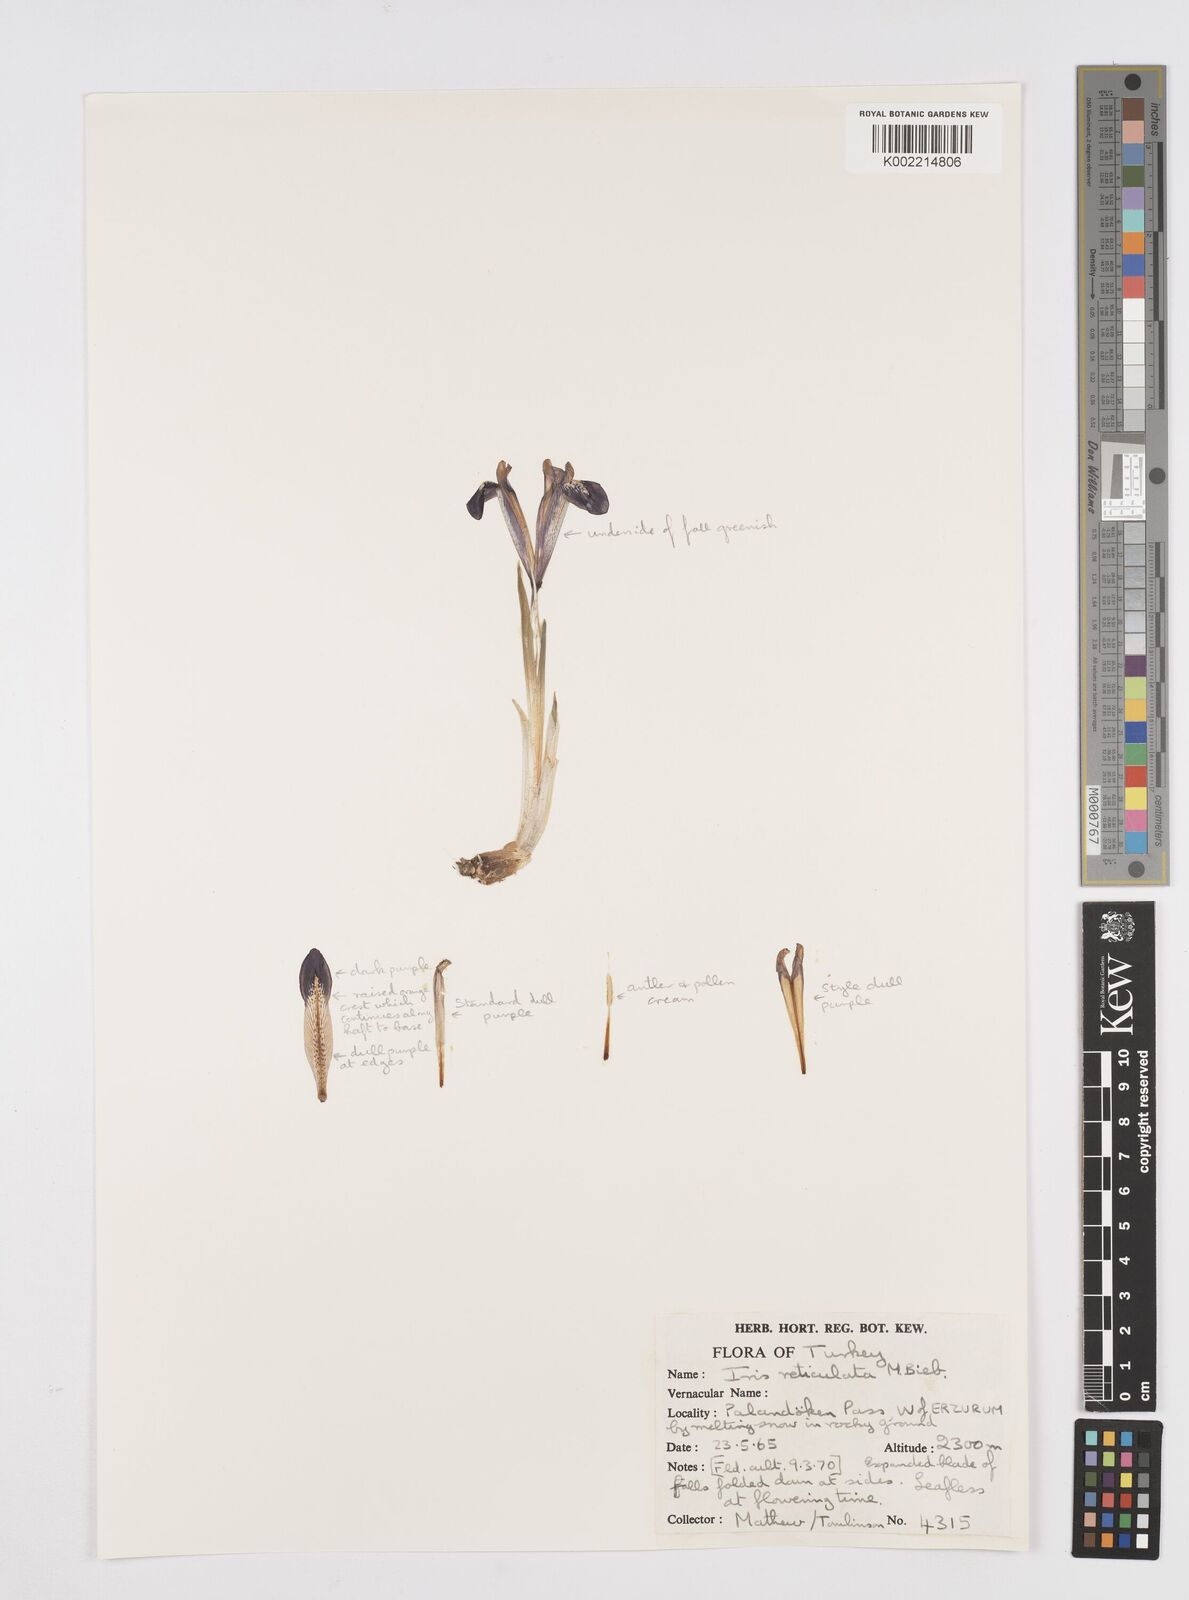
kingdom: Plantae
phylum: Tracheophyta
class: Liliopsida
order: Asparagales
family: Iridaceae
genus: Iris
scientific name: Iris reticulata
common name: Netted iris
